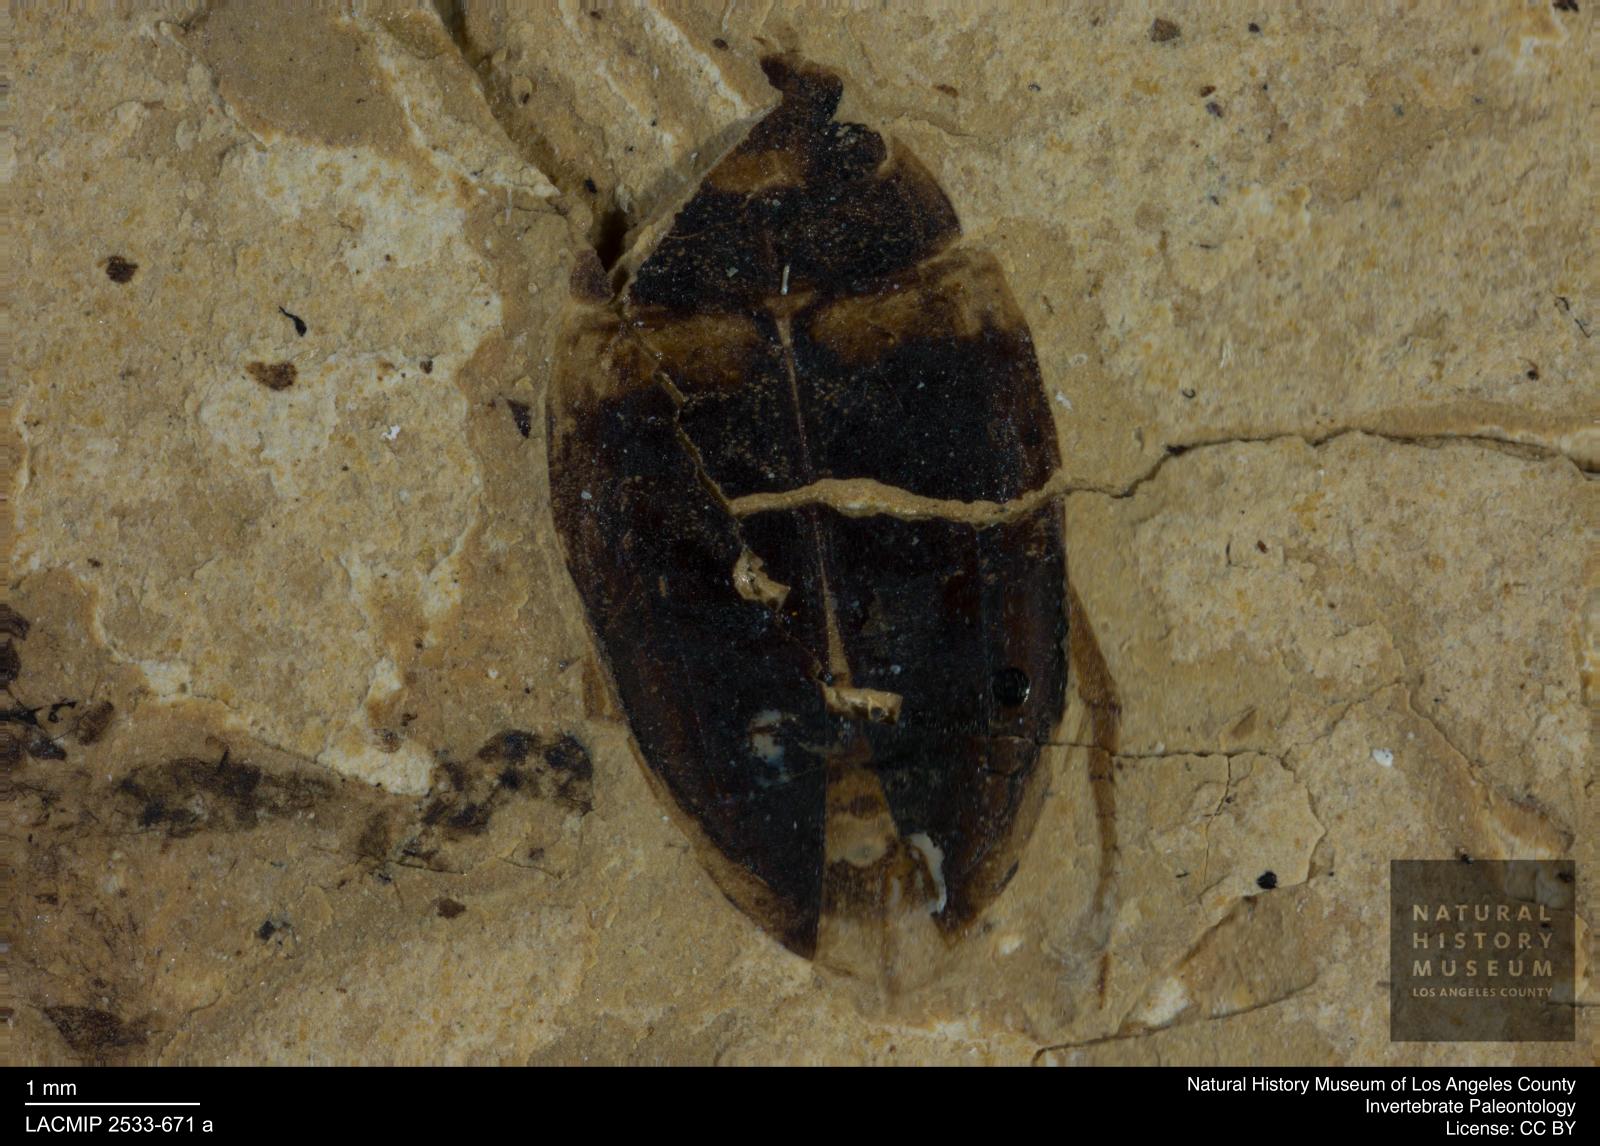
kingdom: Animalia
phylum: Arthropoda
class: Insecta
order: Coleoptera
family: Dytiscidae
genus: Agabus
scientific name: Agabus hochi
